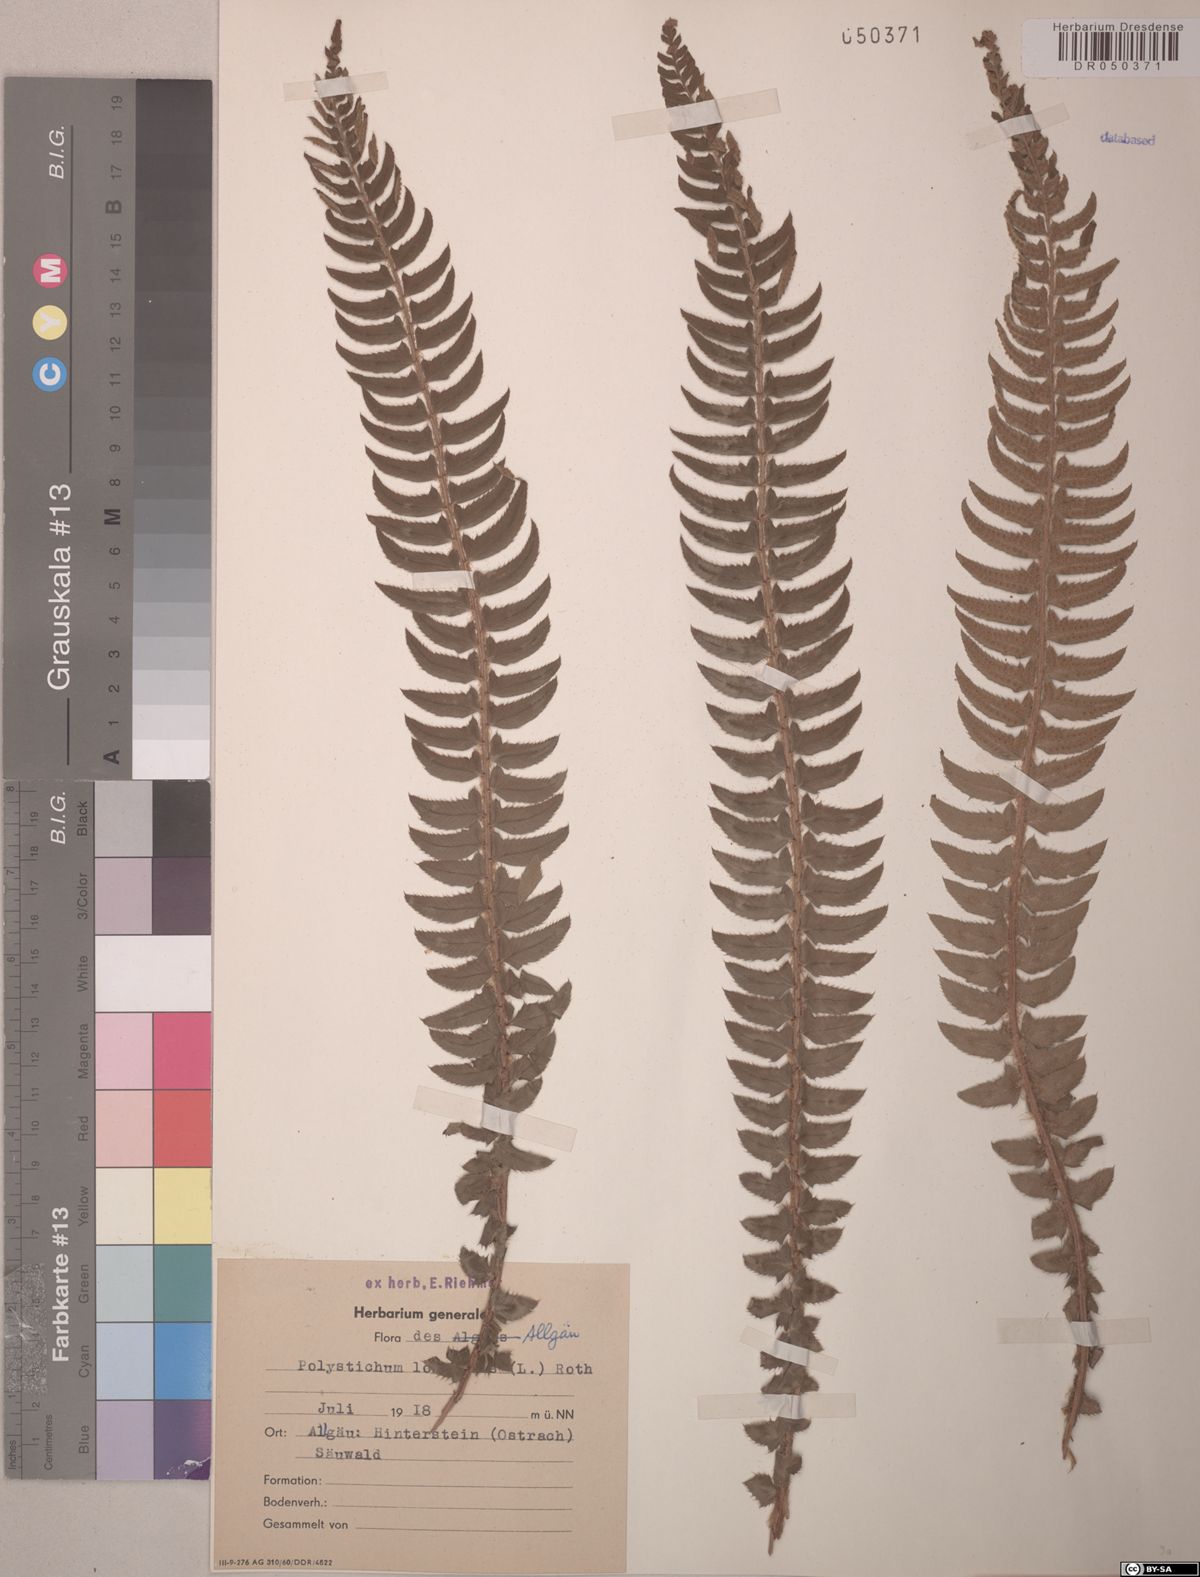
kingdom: Plantae
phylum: Tracheophyta
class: Polypodiopsida
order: Polypodiales
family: Dryopteridaceae
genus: Polystichum
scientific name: Polystichum lonchitis
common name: Holly fern
